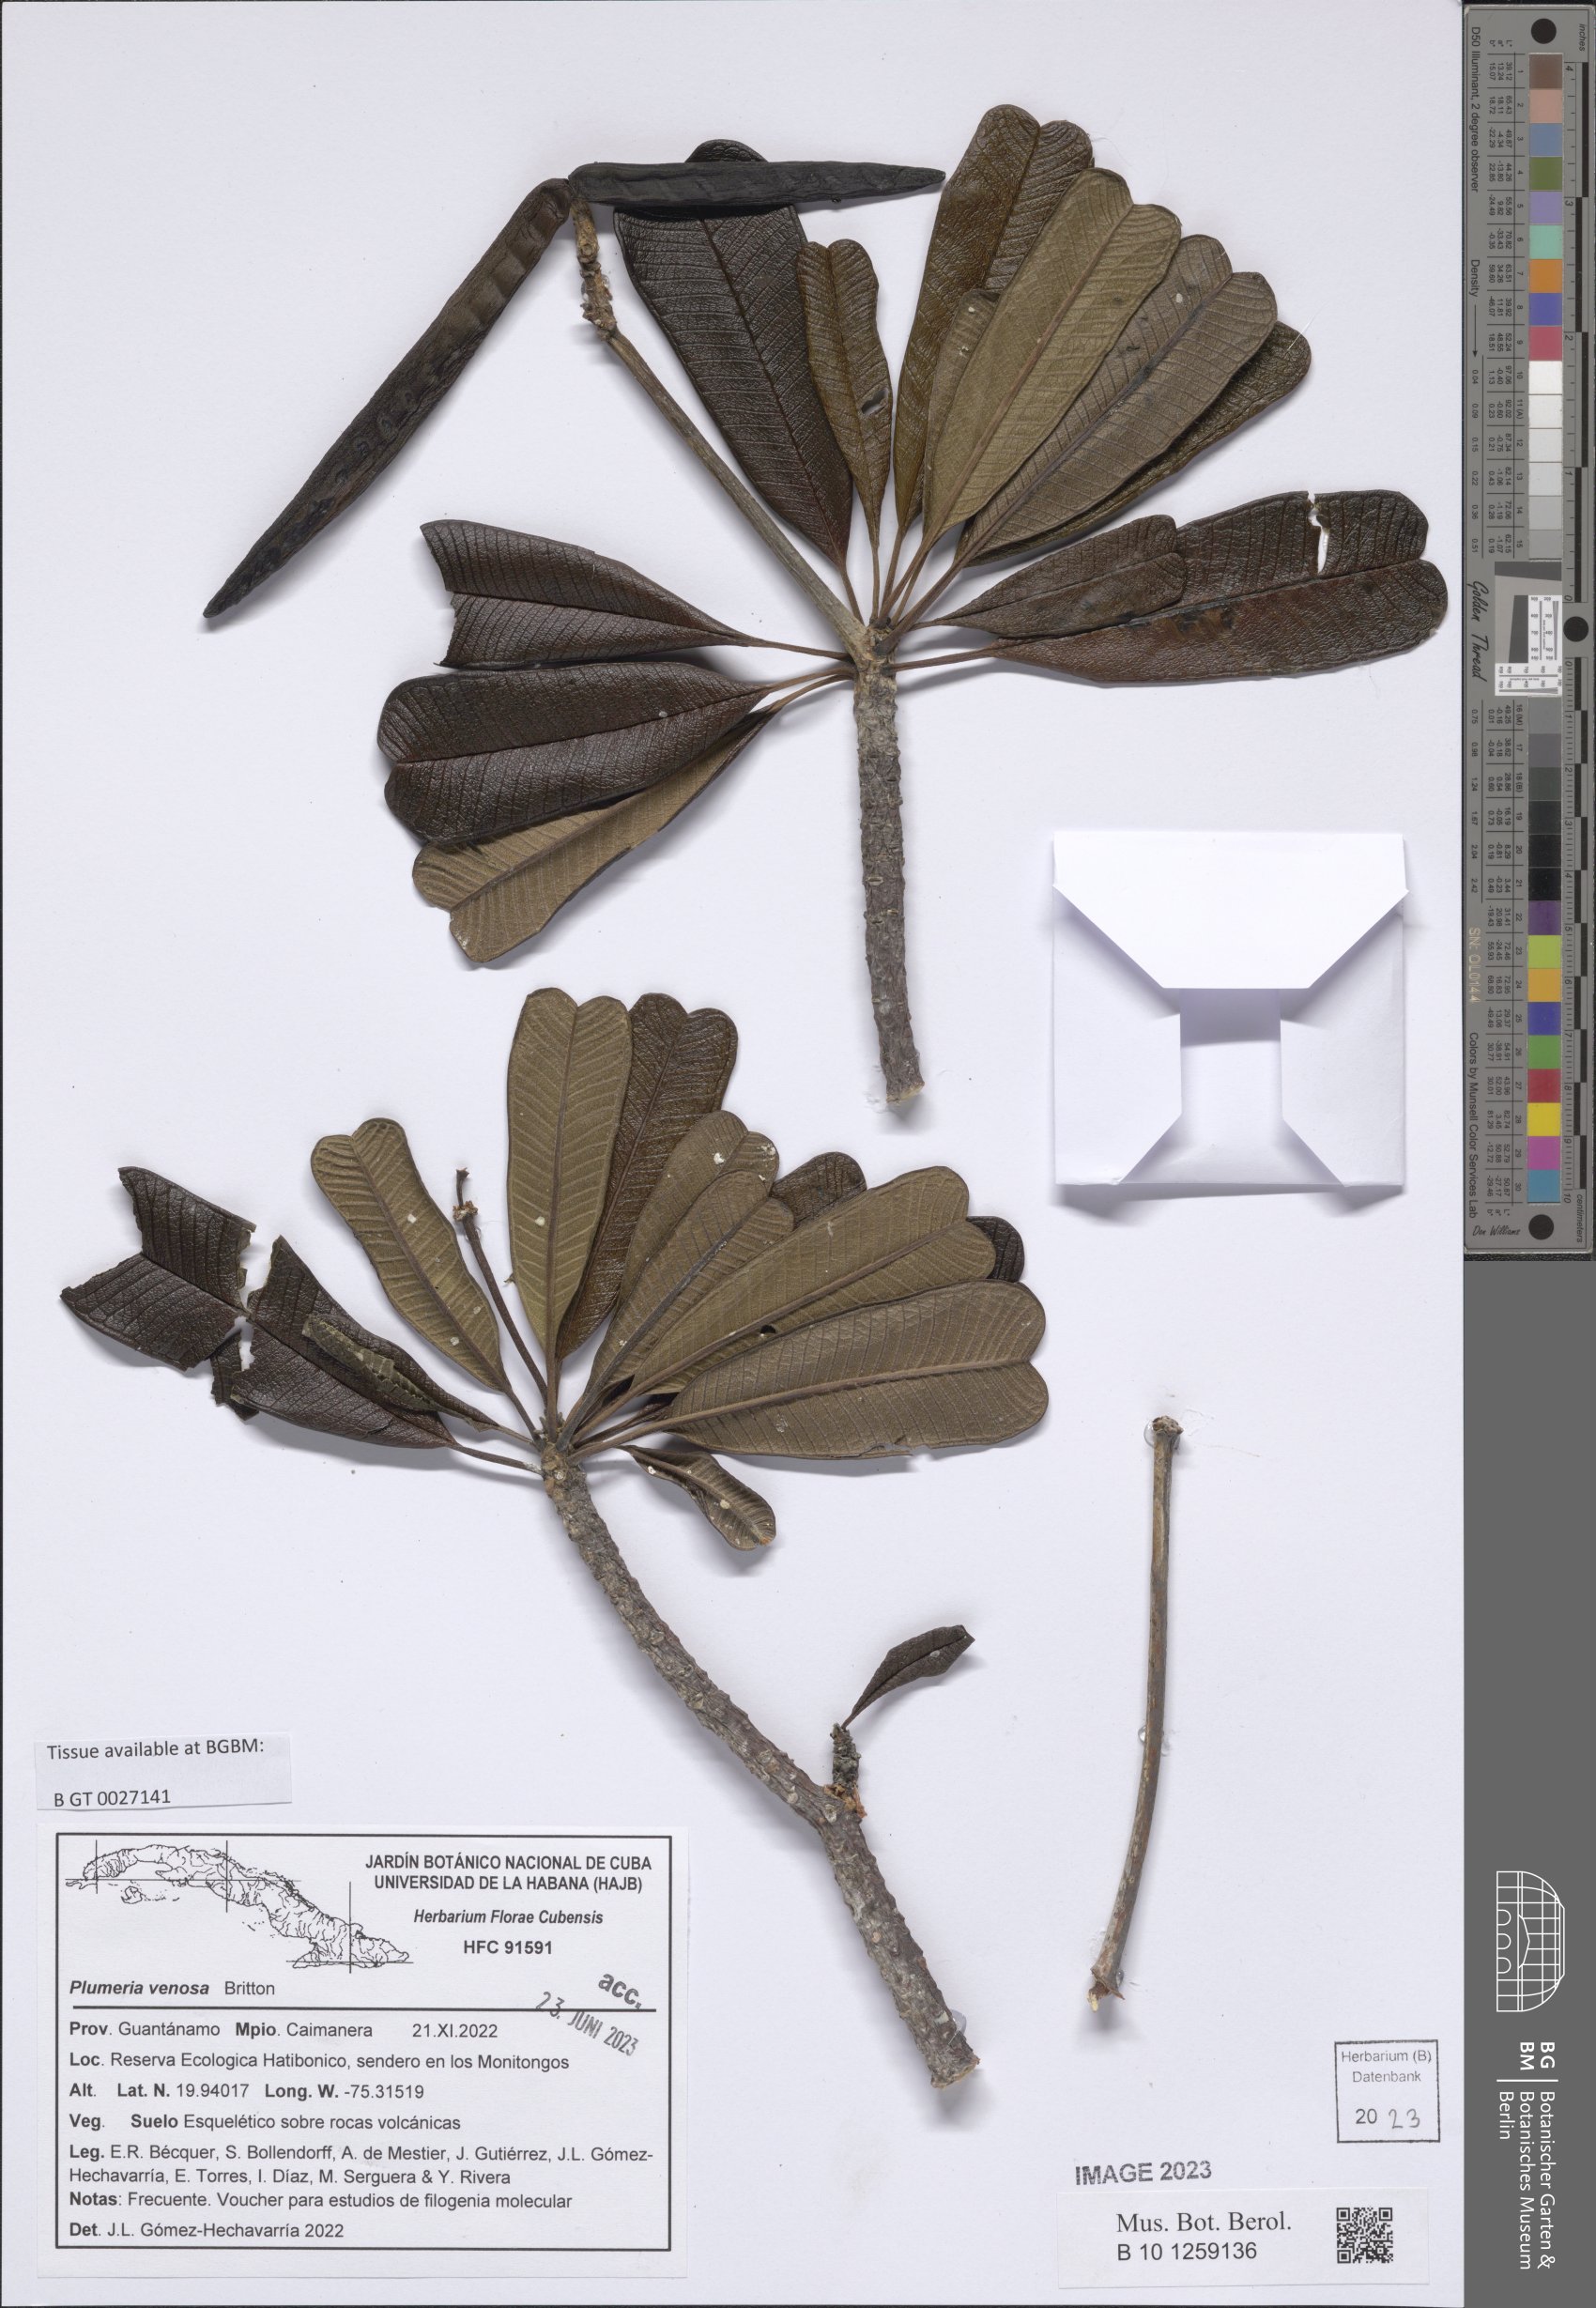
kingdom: Plantae
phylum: Tracheophyta
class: Magnoliopsida
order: Gentianales
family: Apocynaceae
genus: Plumeria
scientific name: Plumeria venosa
